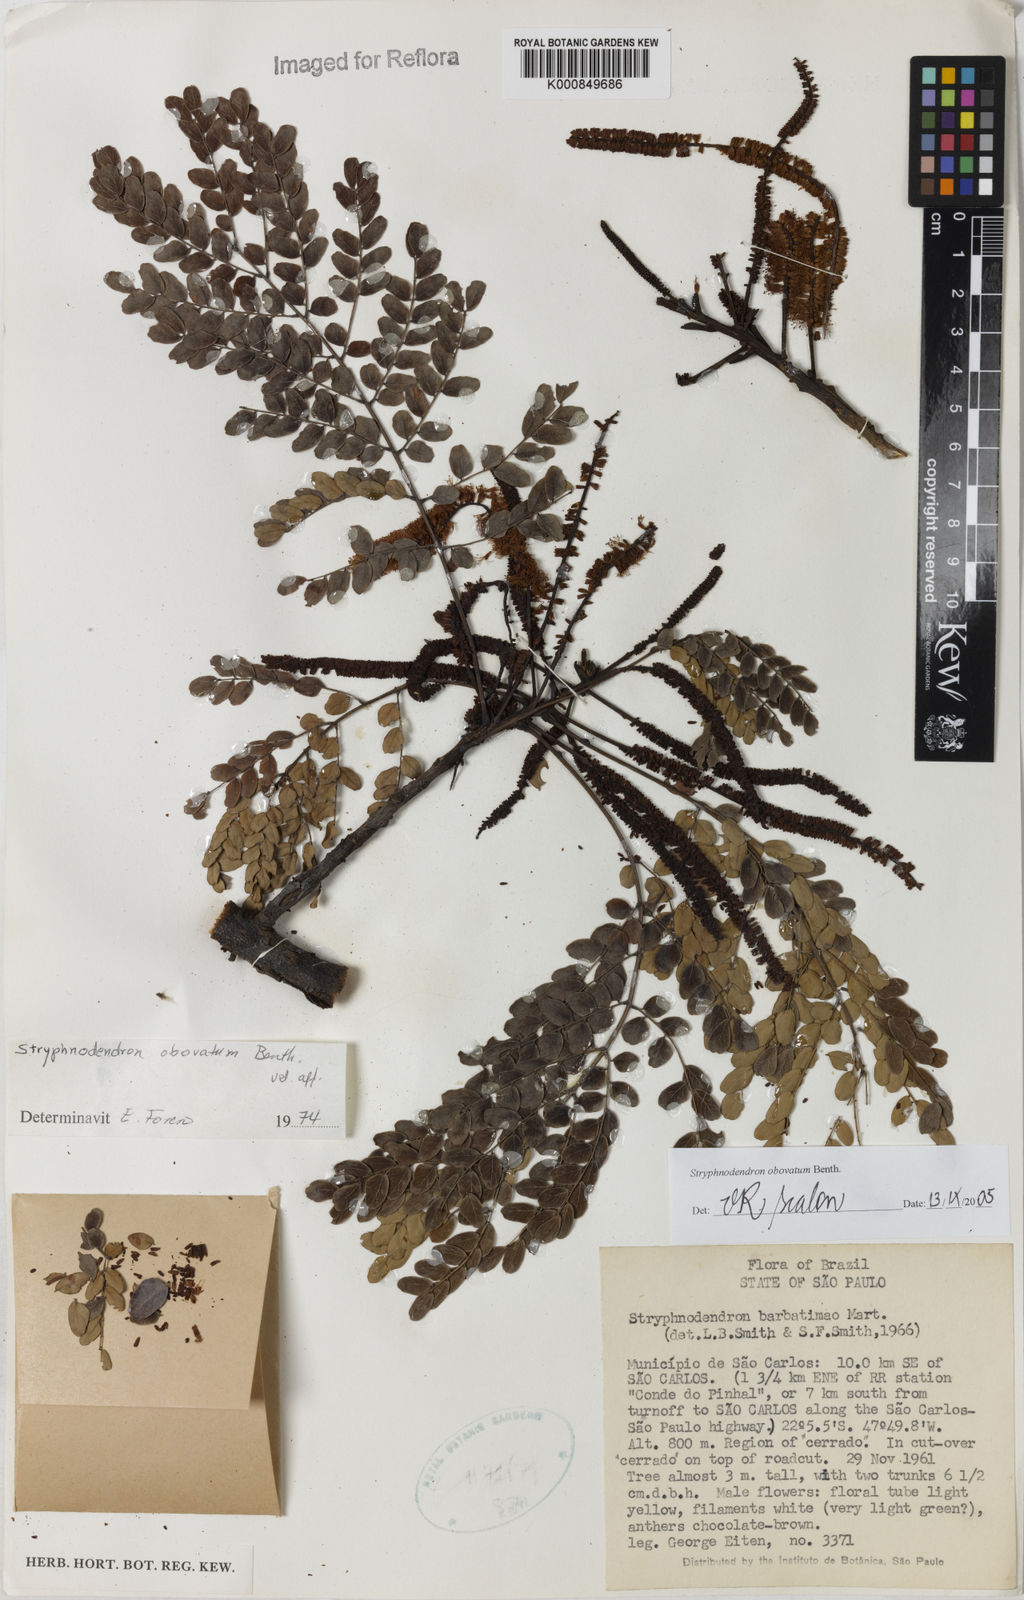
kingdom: Plantae
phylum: Tracheophyta
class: Magnoliopsida
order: Fabales
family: Fabaceae
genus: Stryphnodendron
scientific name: Stryphnodendron rotundifolium
